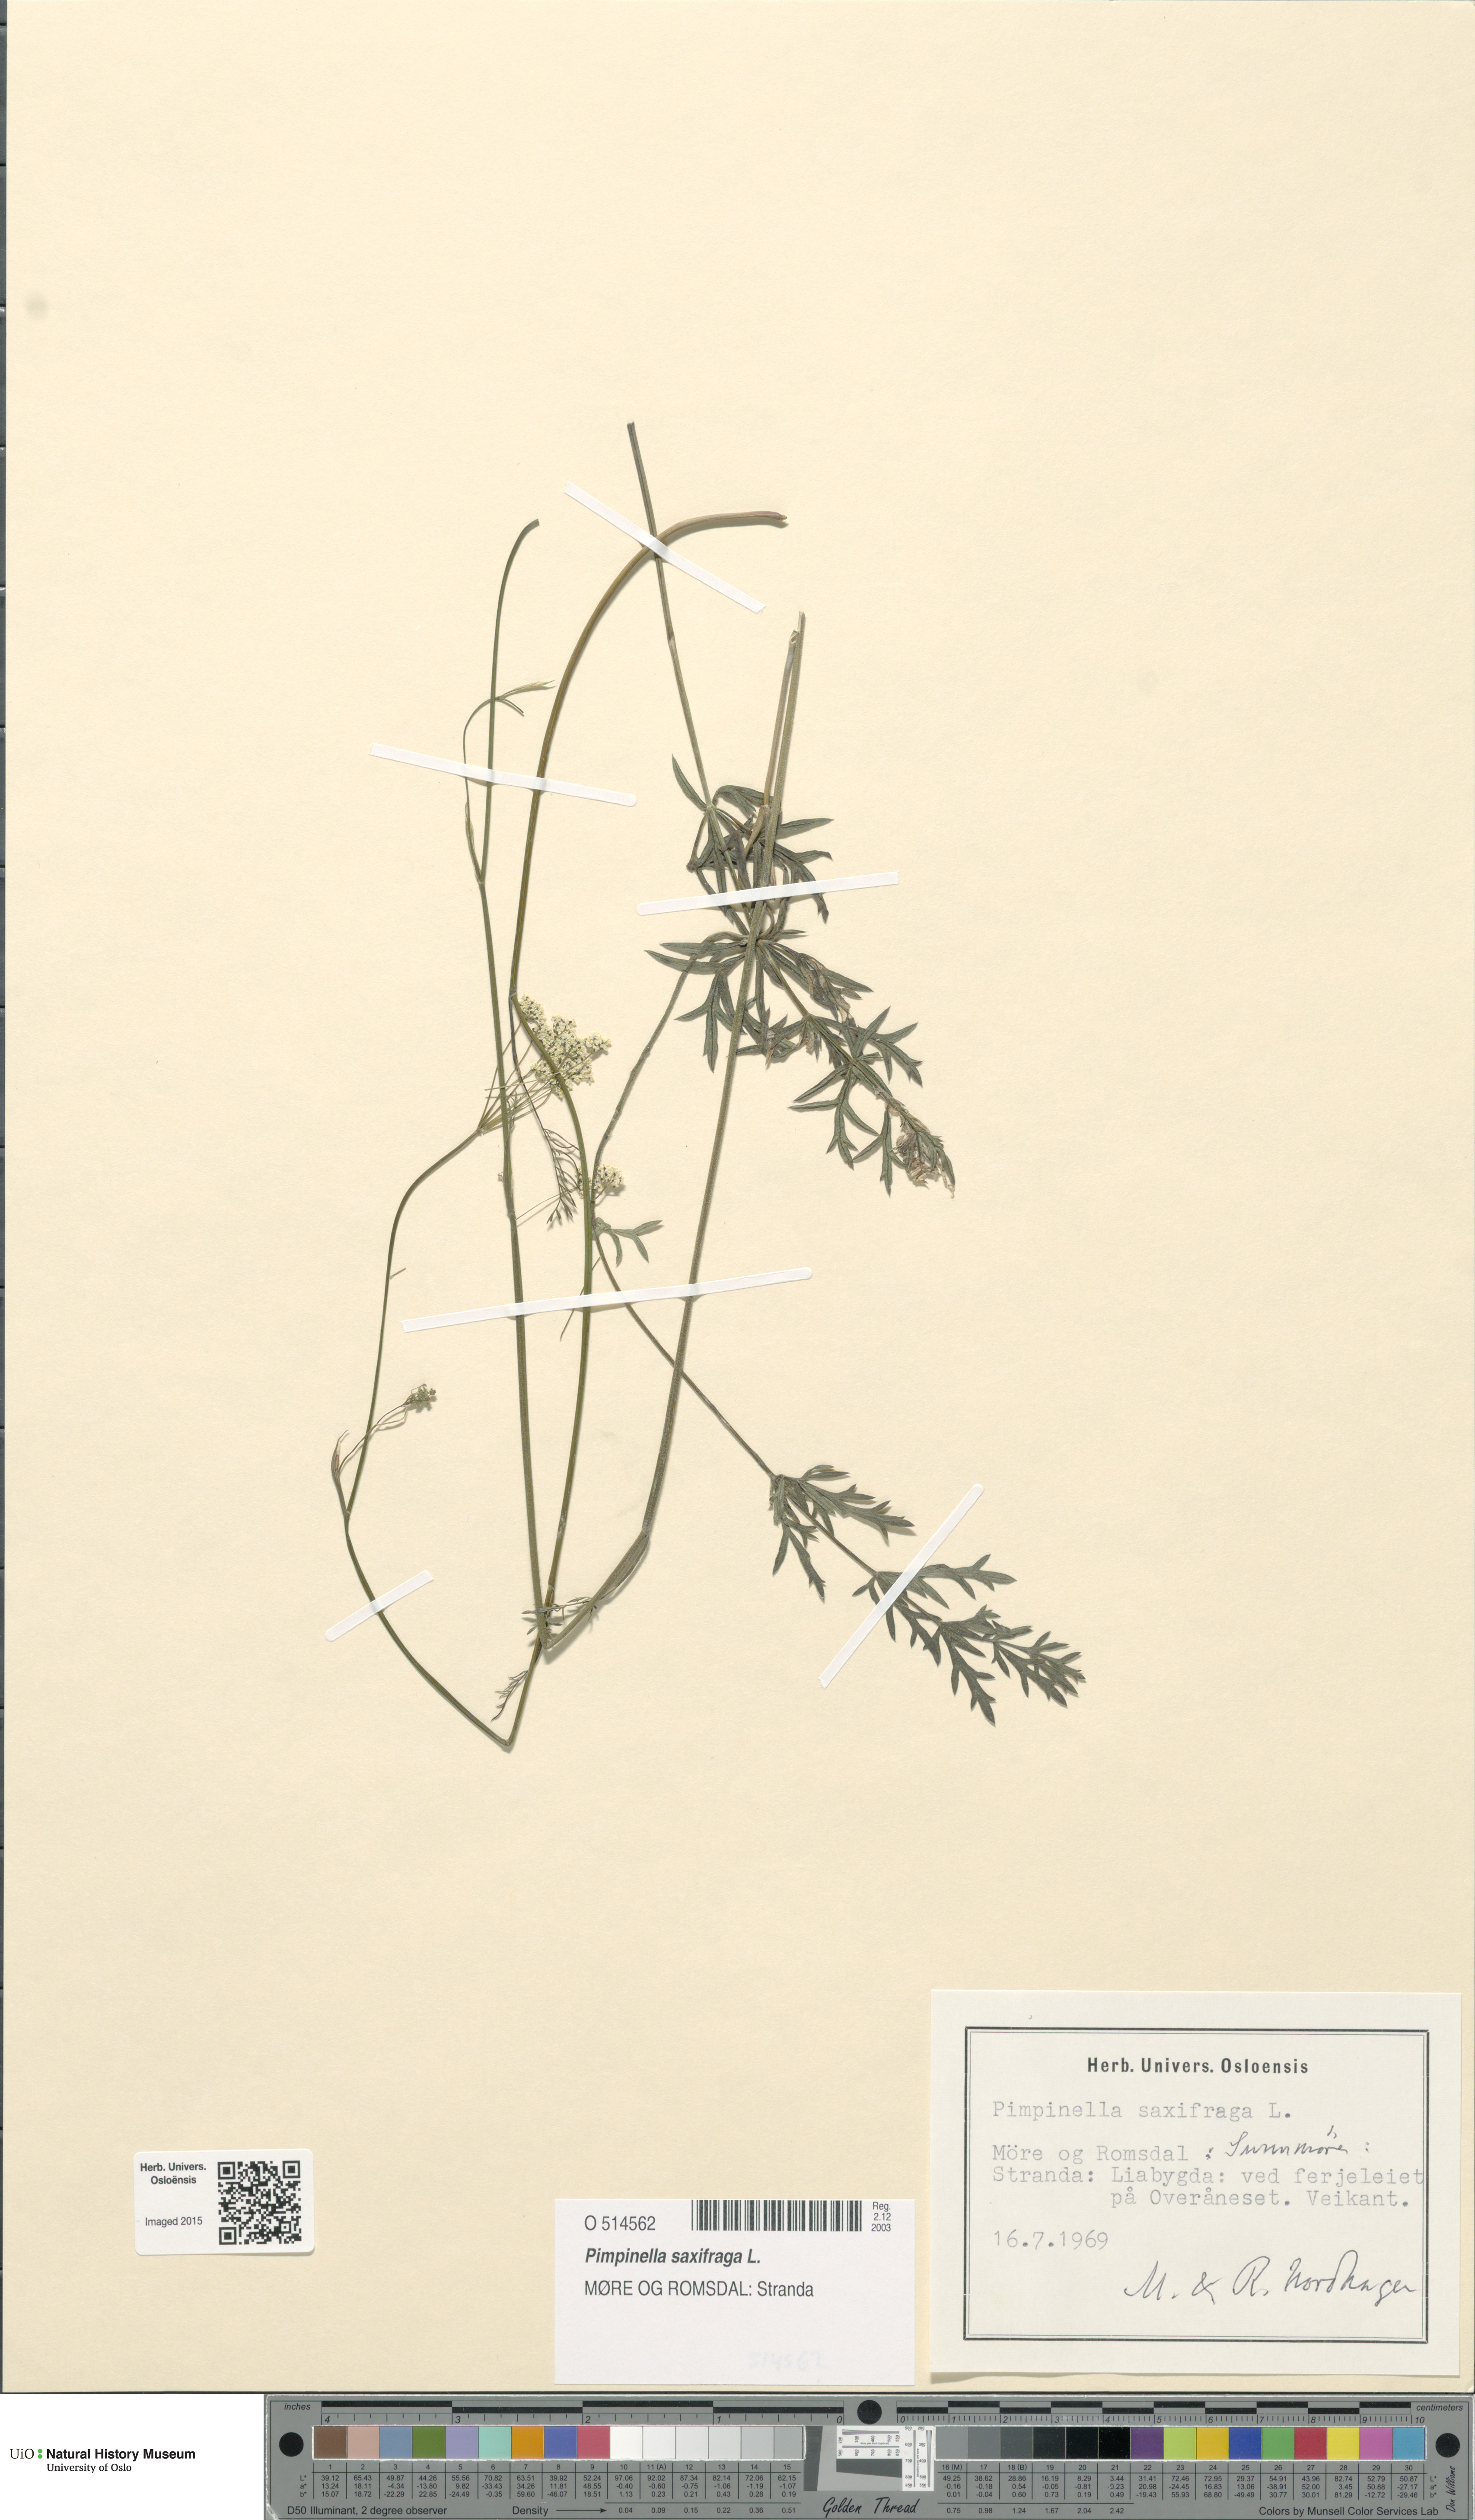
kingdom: Plantae
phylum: Tracheophyta
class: Magnoliopsida
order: Apiales
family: Apiaceae
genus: Pimpinella
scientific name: Pimpinella saxifraga
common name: Burnet-saxifrage
